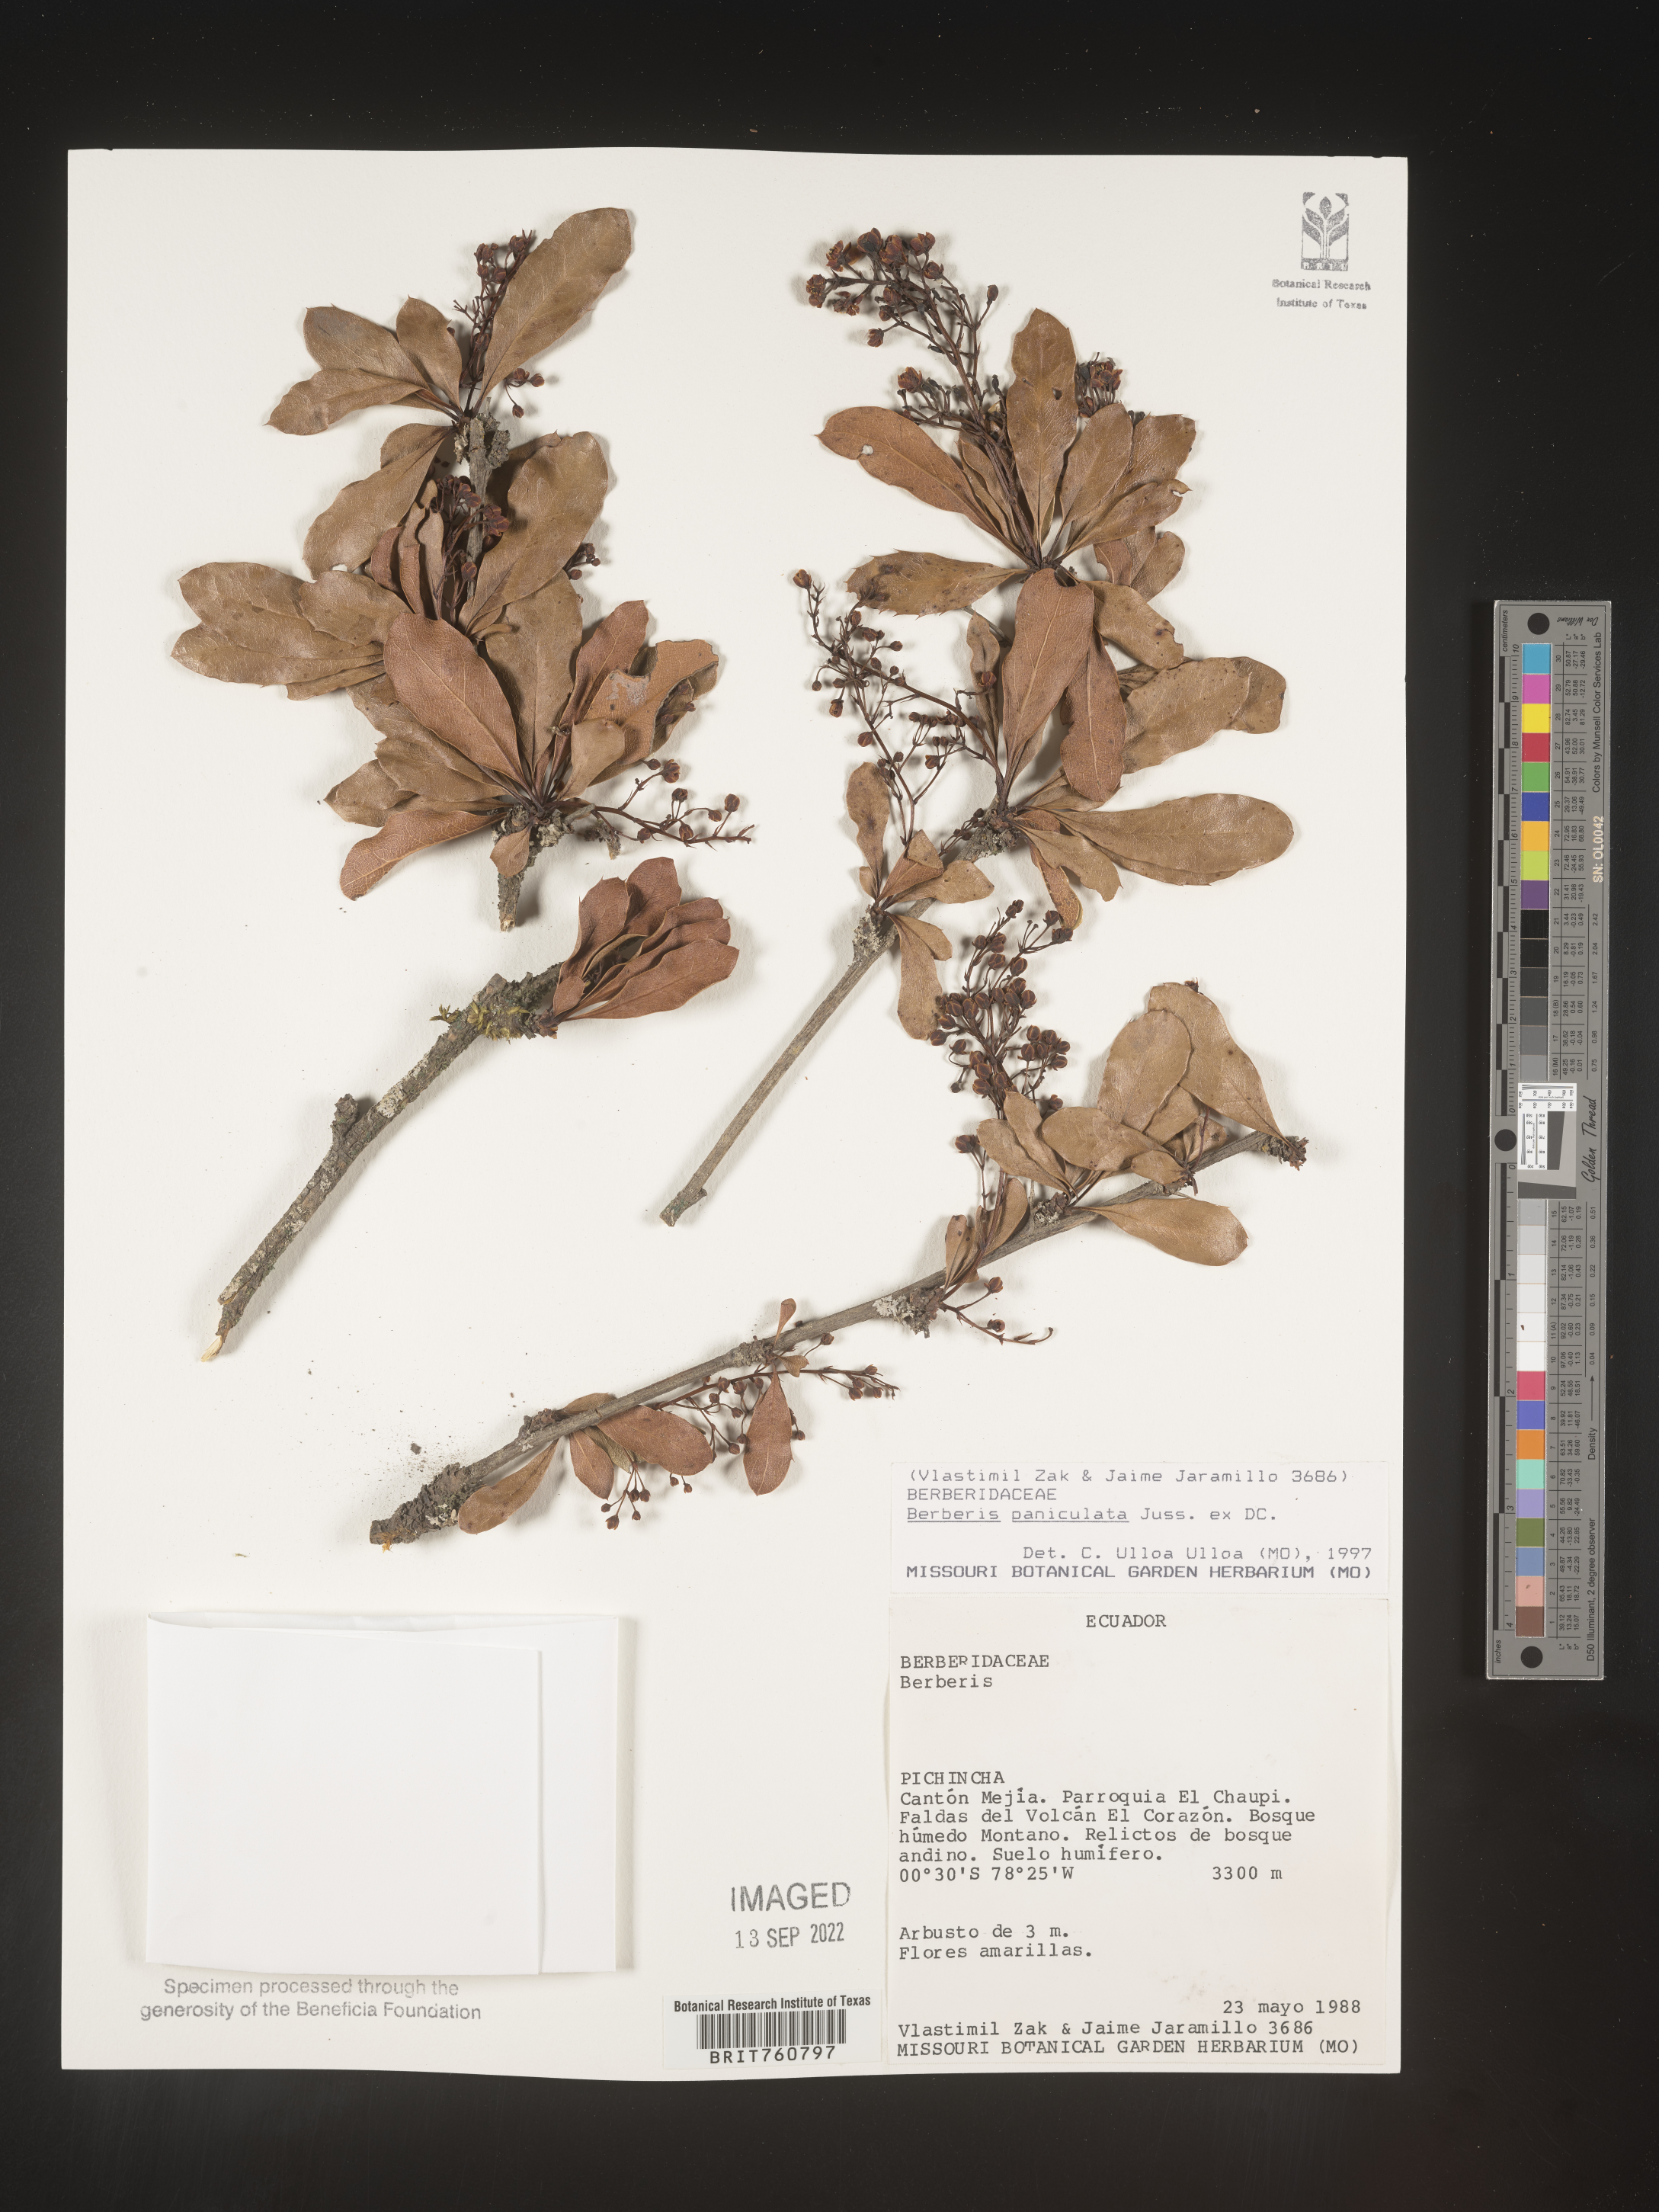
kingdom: Plantae
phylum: Tracheophyta
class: Magnoliopsida
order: Ranunculales
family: Berberidaceae
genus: Berberis
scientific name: Berberis
